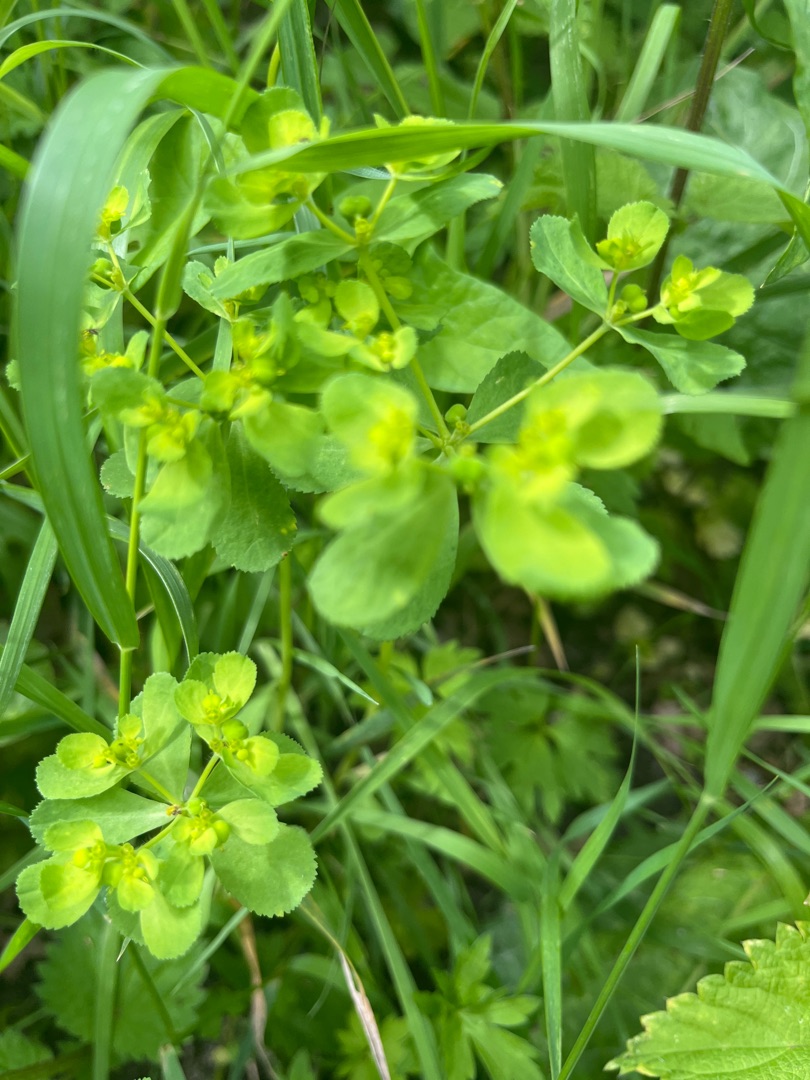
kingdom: Plantae
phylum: Tracheophyta
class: Magnoliopsida
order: Malpighiales
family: Euphorbiaceae
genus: Euphorbia
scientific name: Euphorbia helioscopia
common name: Skærm-vortemælk
